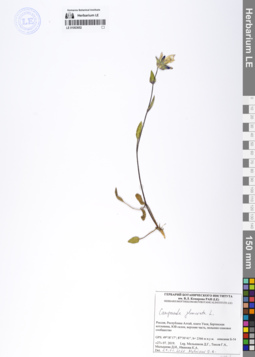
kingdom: Plantae
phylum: Tracheophyta
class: Magnoliopsida
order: Asterales
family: Campanulaceae
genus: Campanula
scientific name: Campanula glomerata
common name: Clustered bellflower
